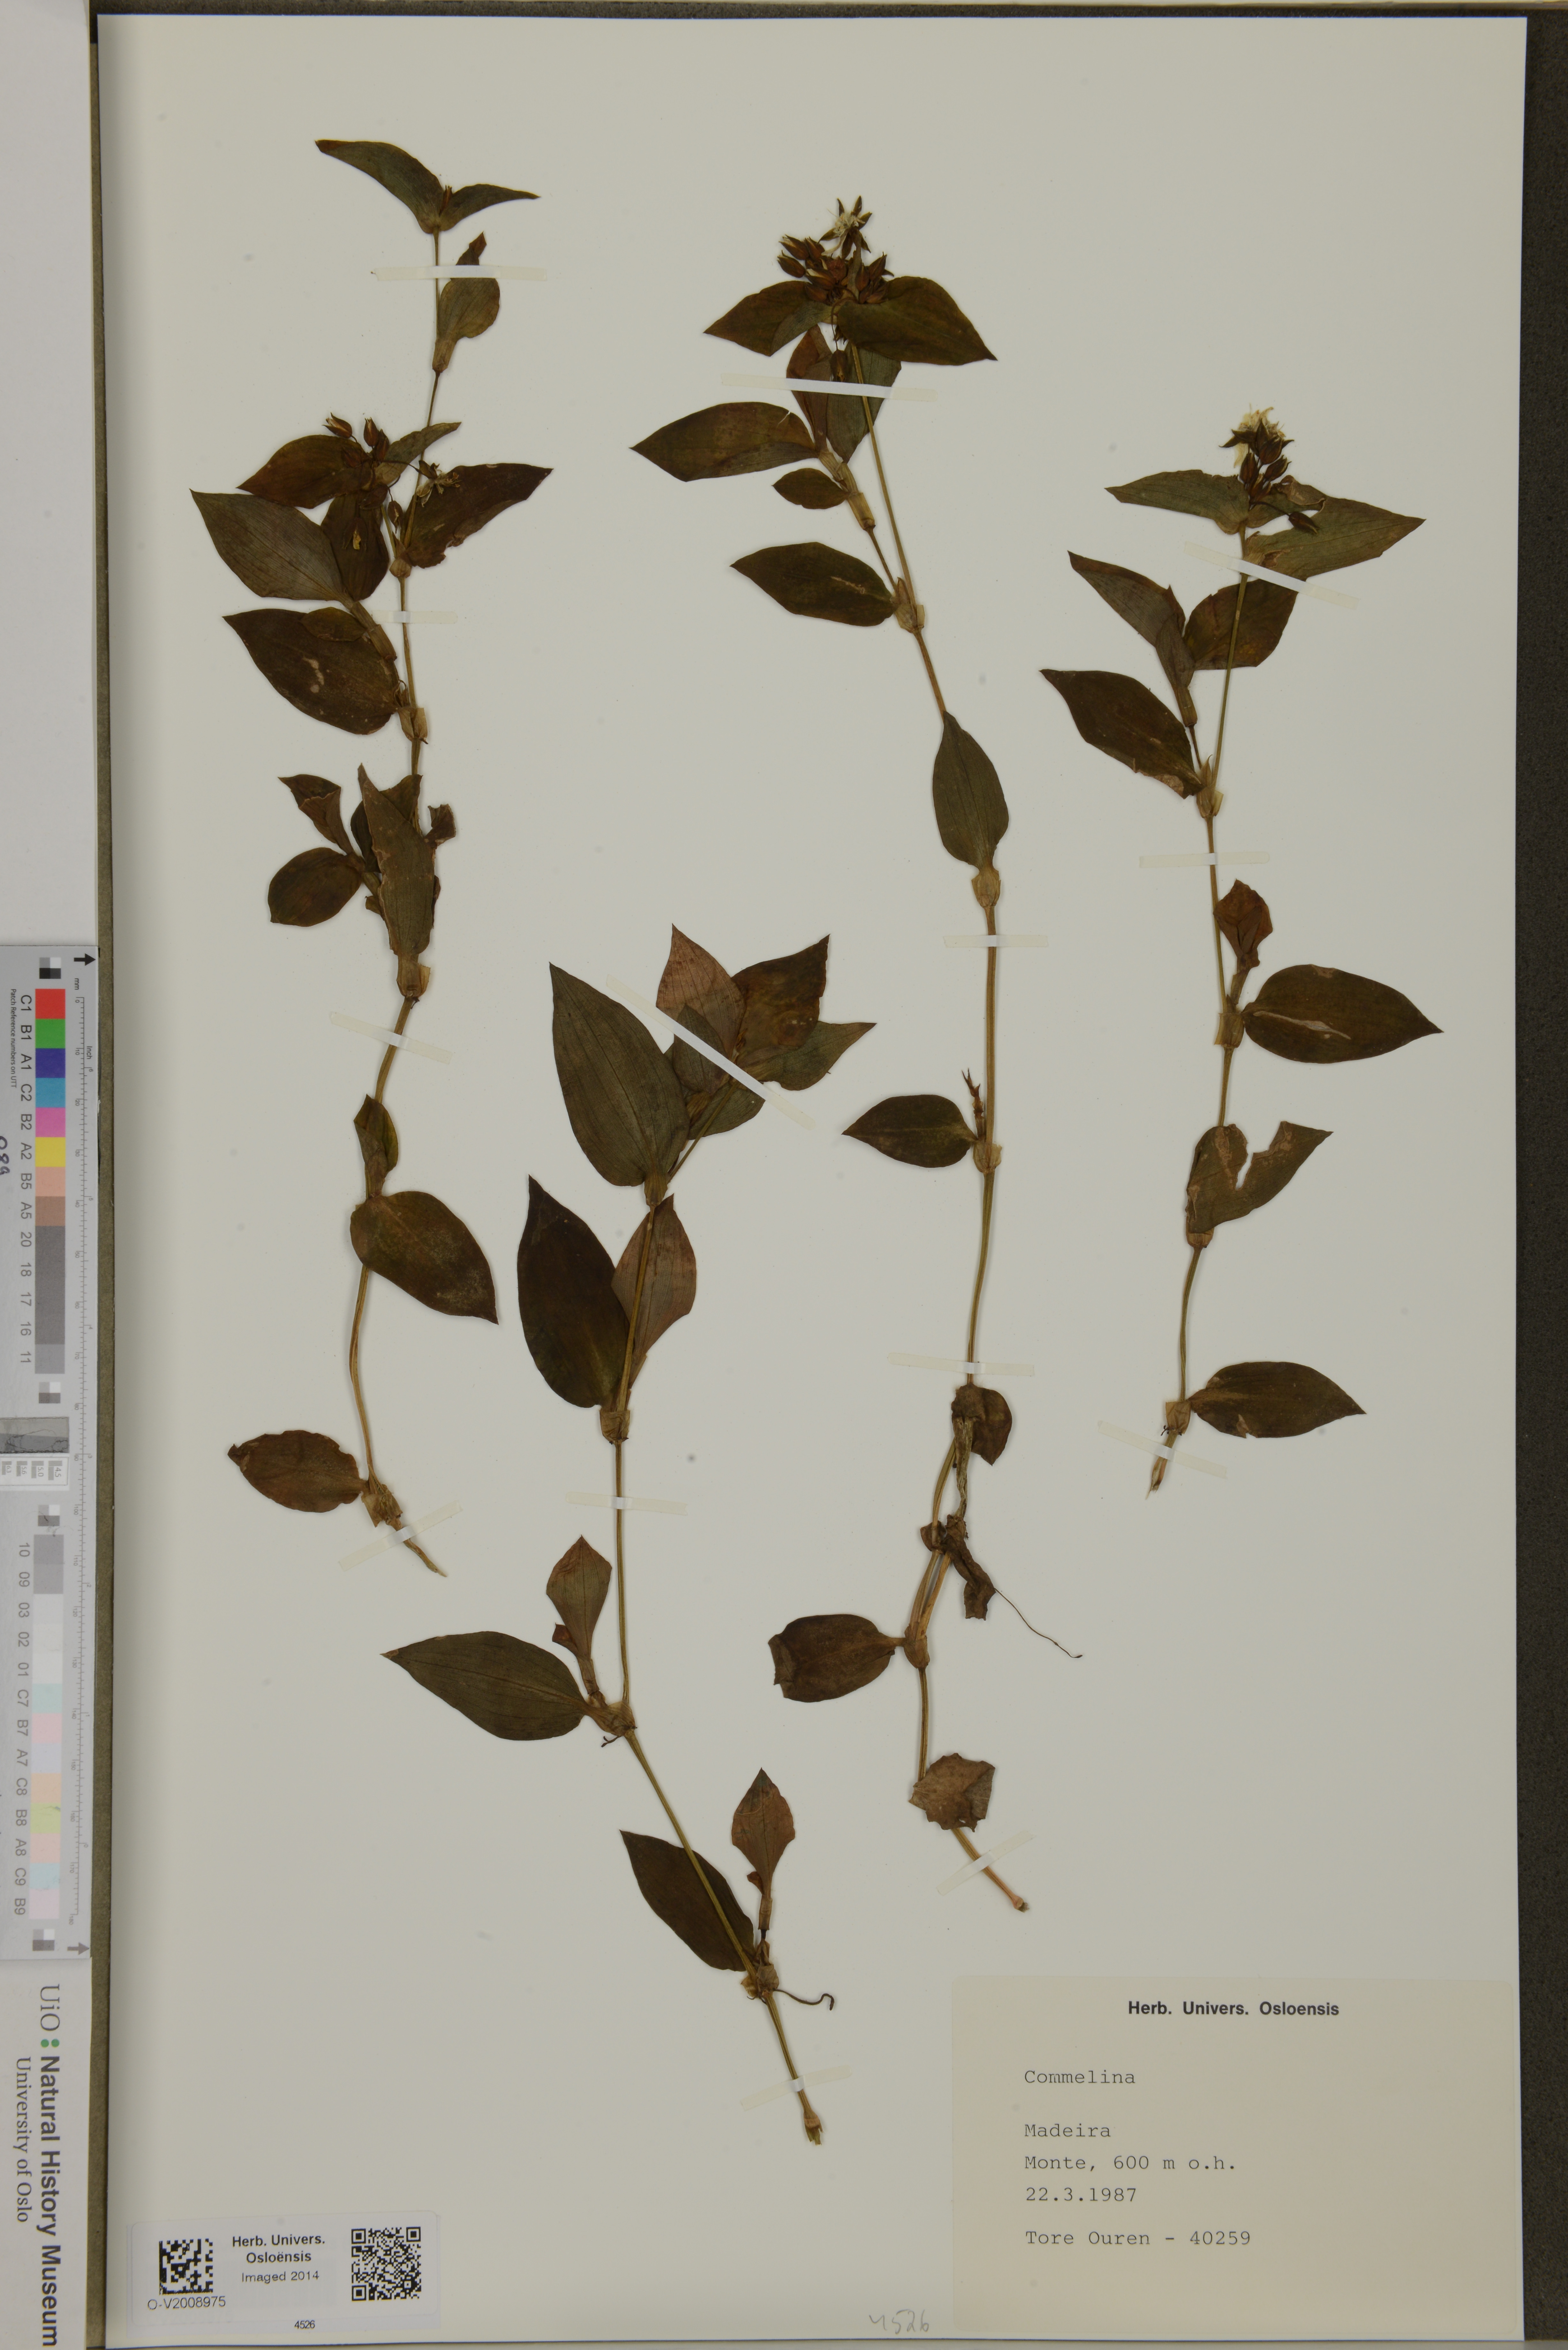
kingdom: Plantae
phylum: Tracheophyta
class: Liliopsida
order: Commelinales
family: Commelinaceae
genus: Commelina
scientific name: Commelina
